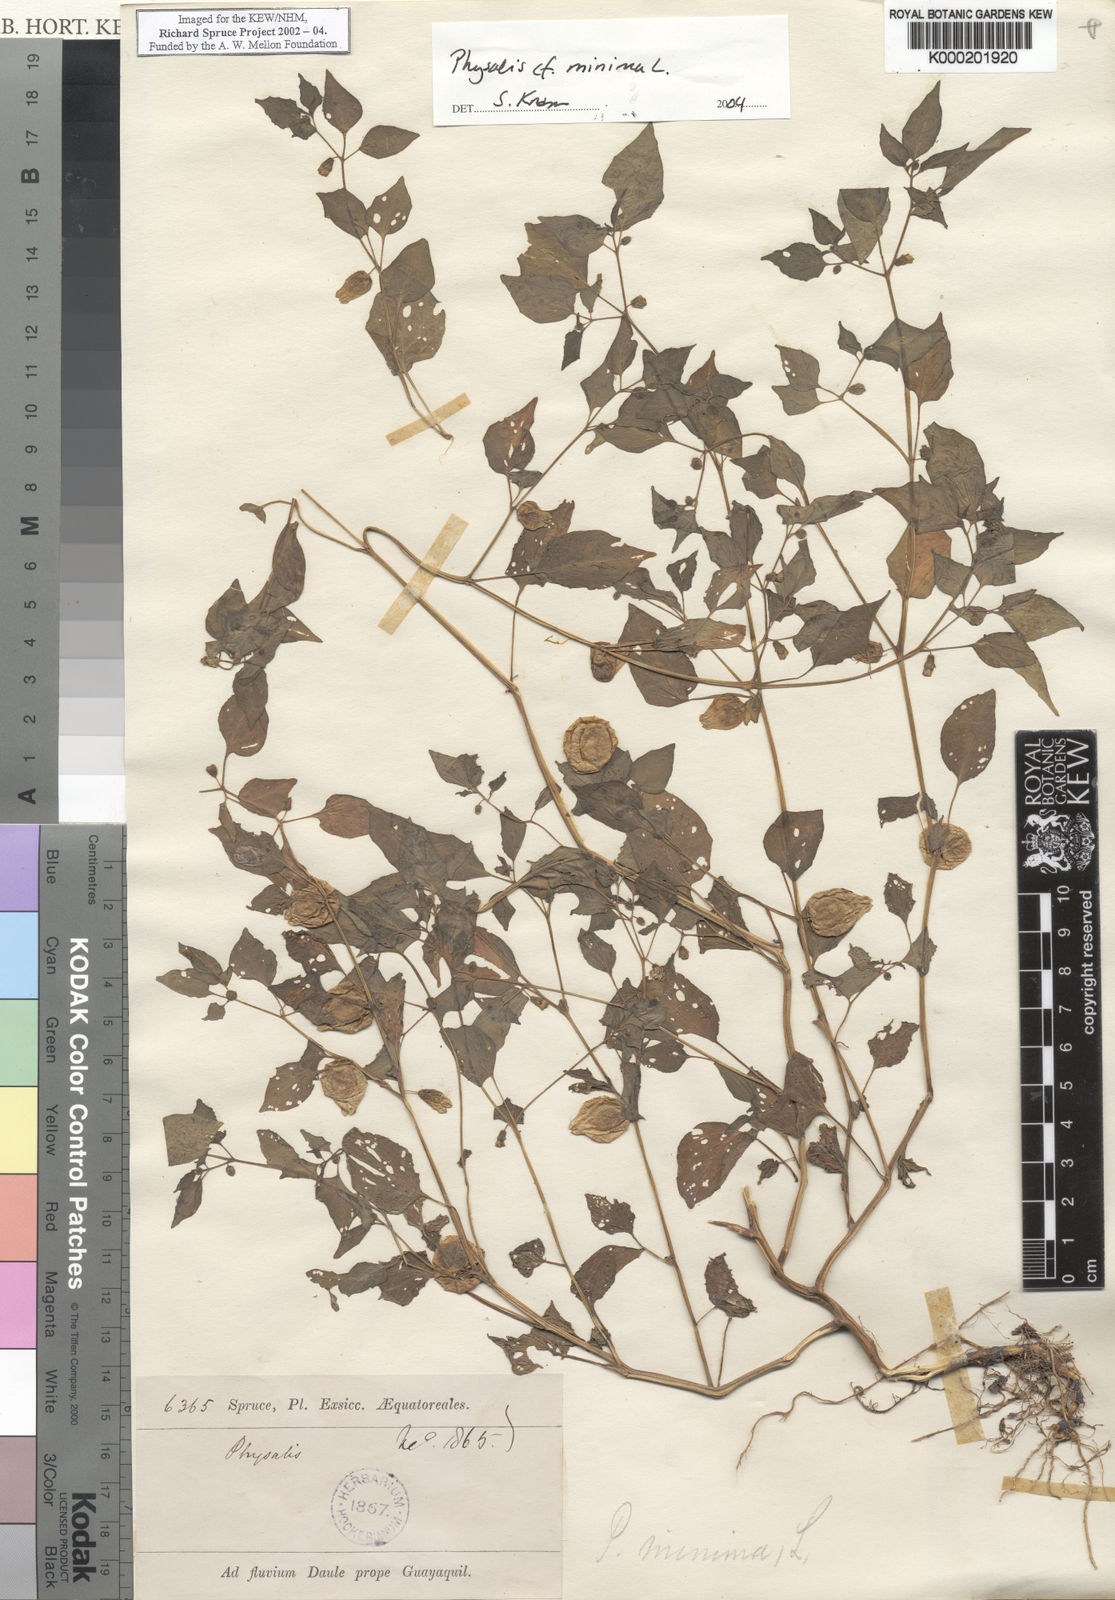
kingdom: Plantae
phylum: Tracheophyta
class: Magnoliopsida
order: Solanales
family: Solanaceae
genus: Physalis
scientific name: Physalis angulata
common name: Angular winter-cherry
